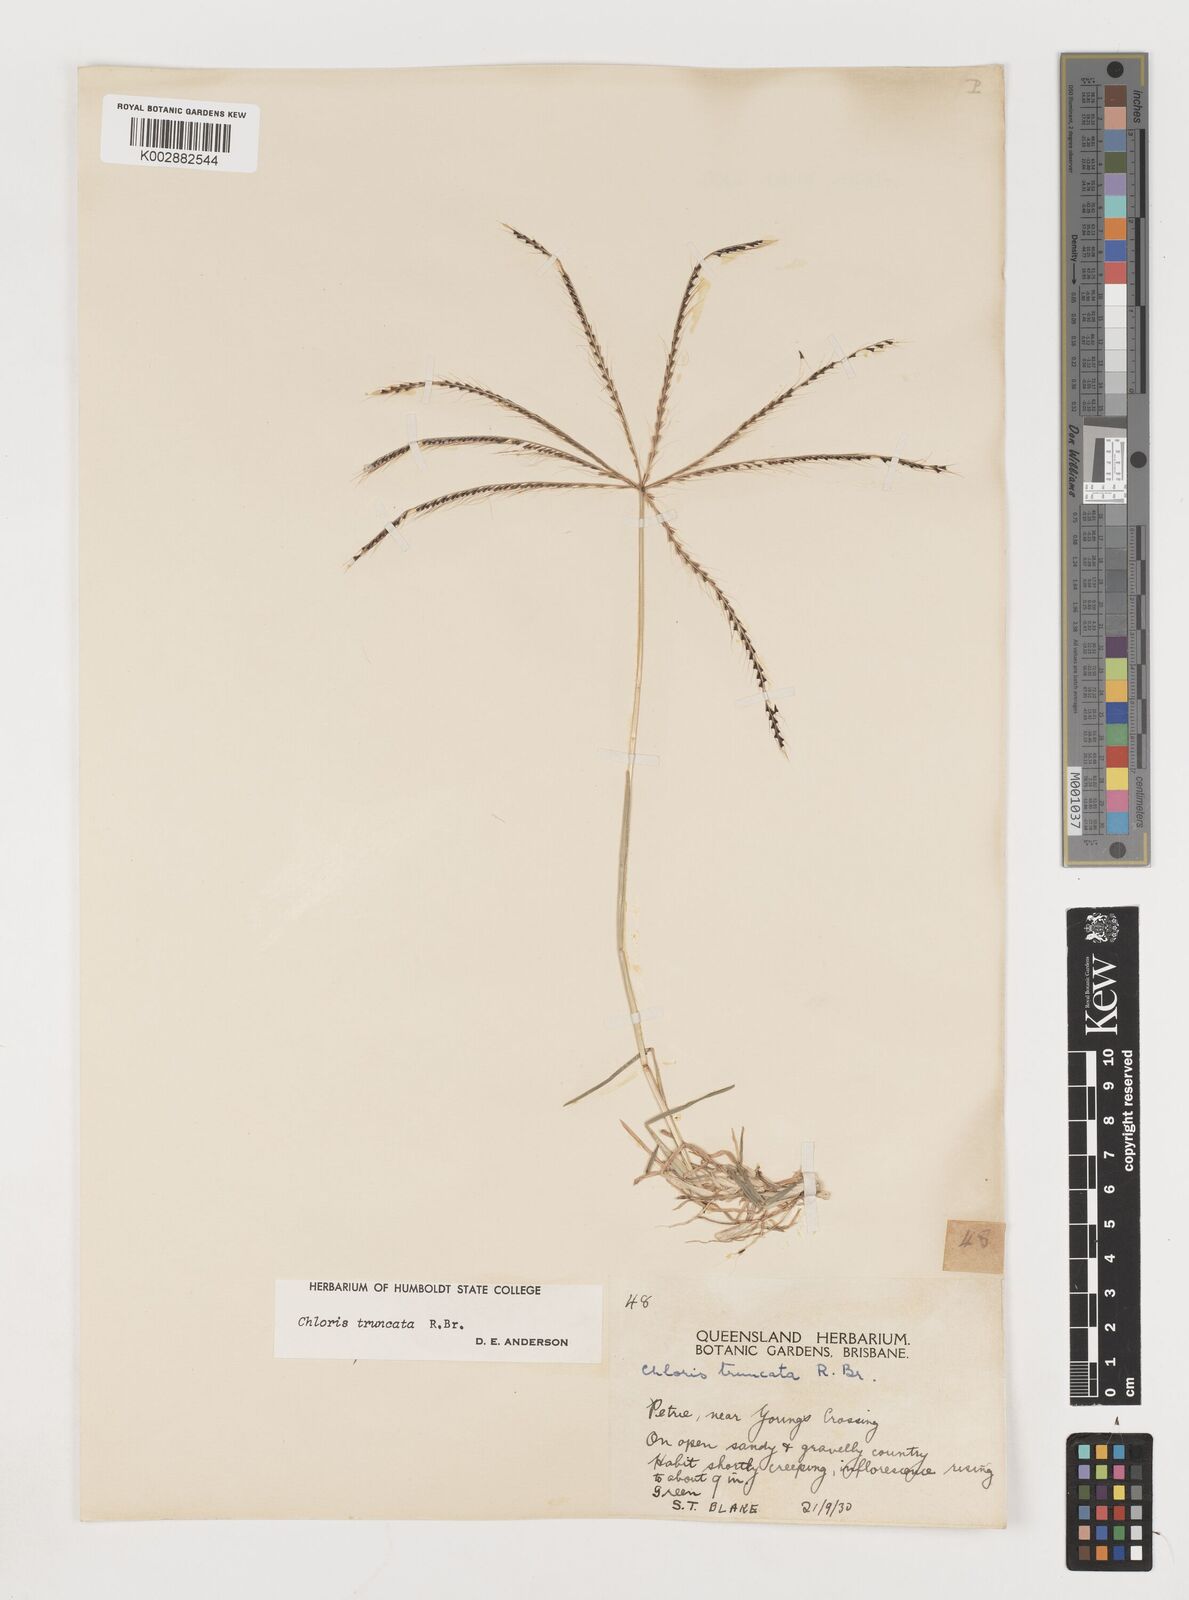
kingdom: Plantae
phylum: Tracheophyta
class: Liliopsida
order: Poales
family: Poaceae
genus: Chloris
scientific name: Chloris truncata
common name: Windmill-grass
